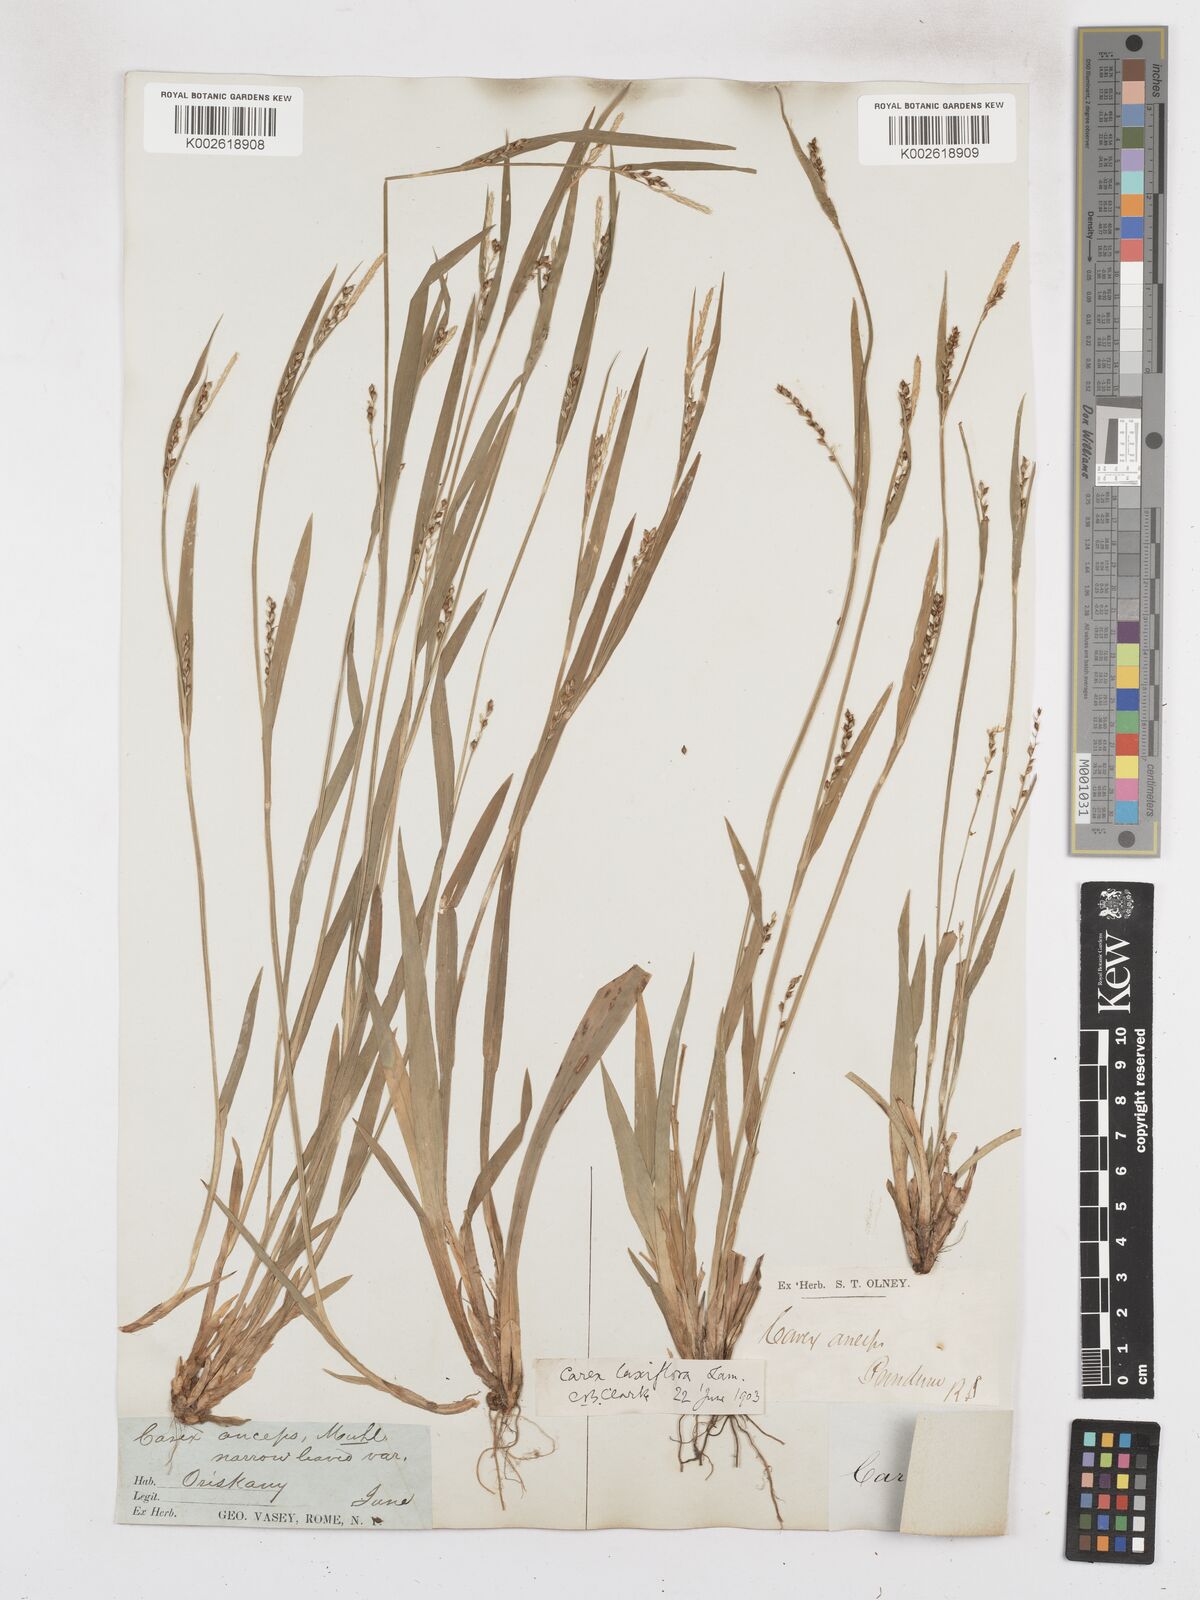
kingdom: Plantae
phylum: Tracheophyta
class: Liliopsida
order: Poales
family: Cyperaceae
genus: Carex
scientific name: Carex laxiflora
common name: Beech wood sedge
